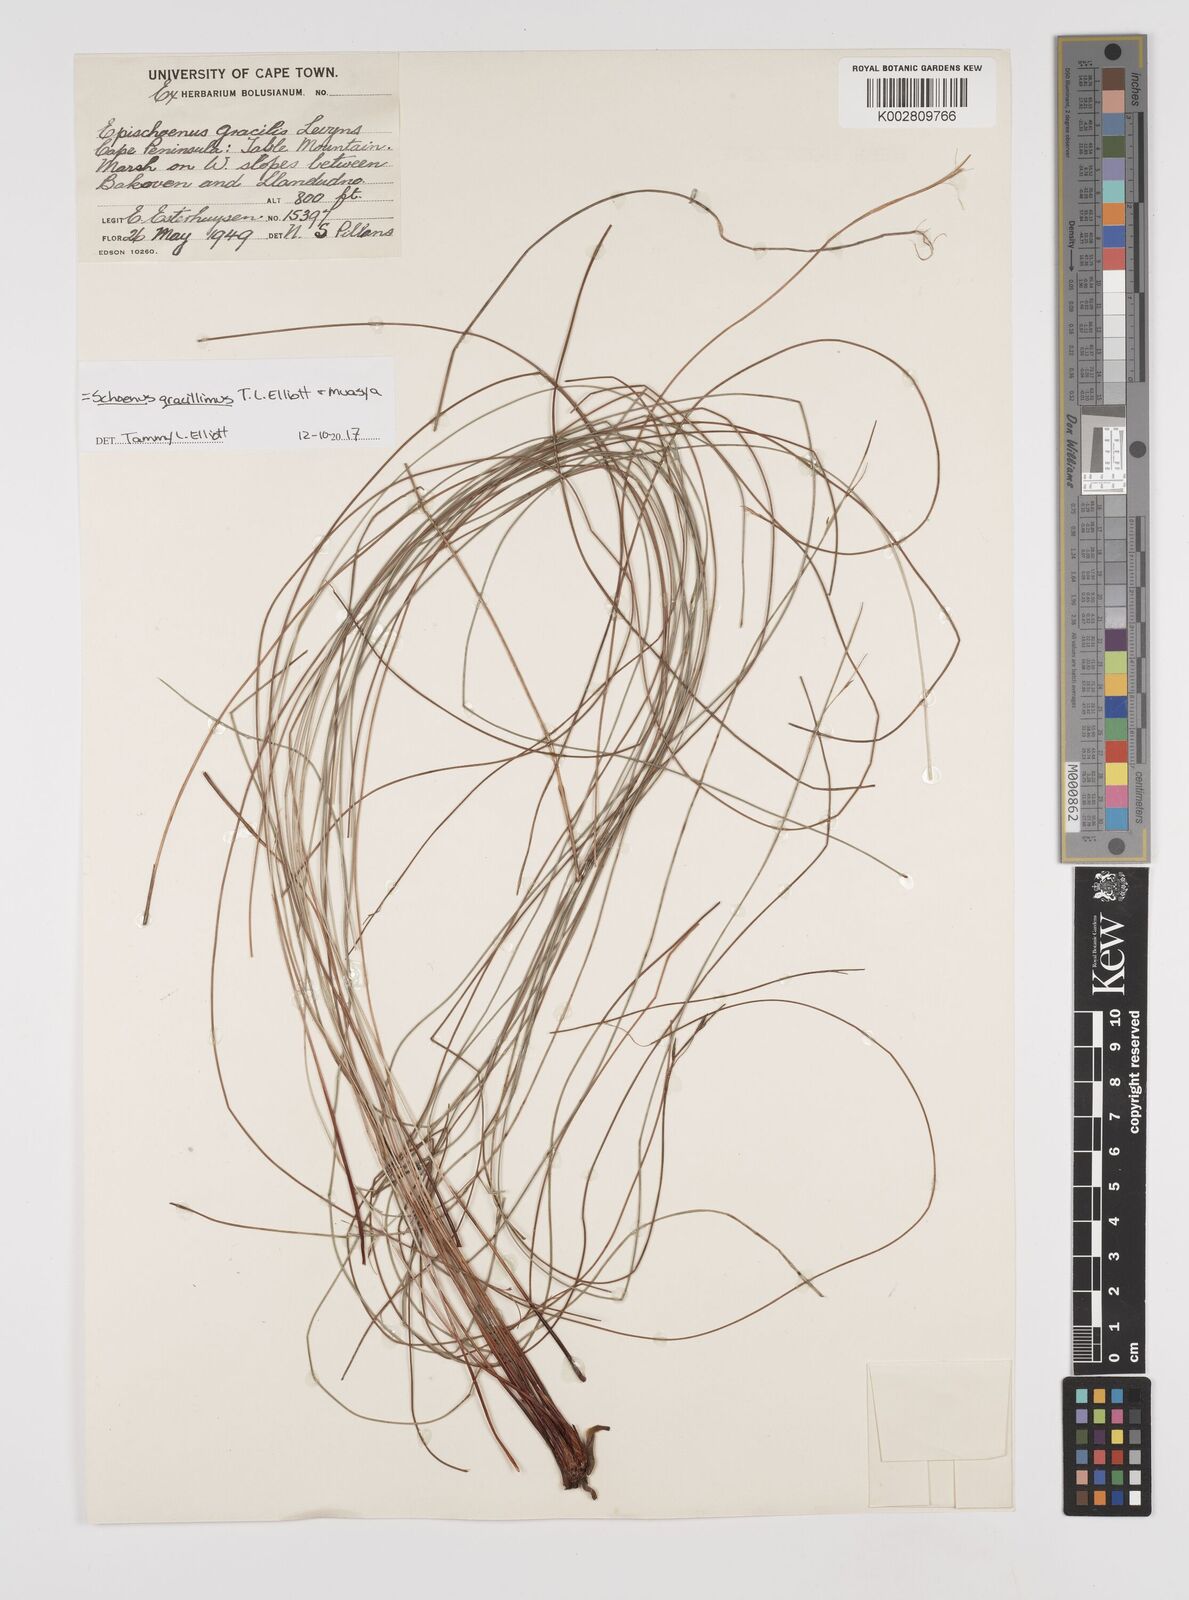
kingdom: Plantae
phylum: Tracheophyta
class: Liliopsida
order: Poales
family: Cyperaceae
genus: Rhynchospora
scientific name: Rhynchospora racemosa
